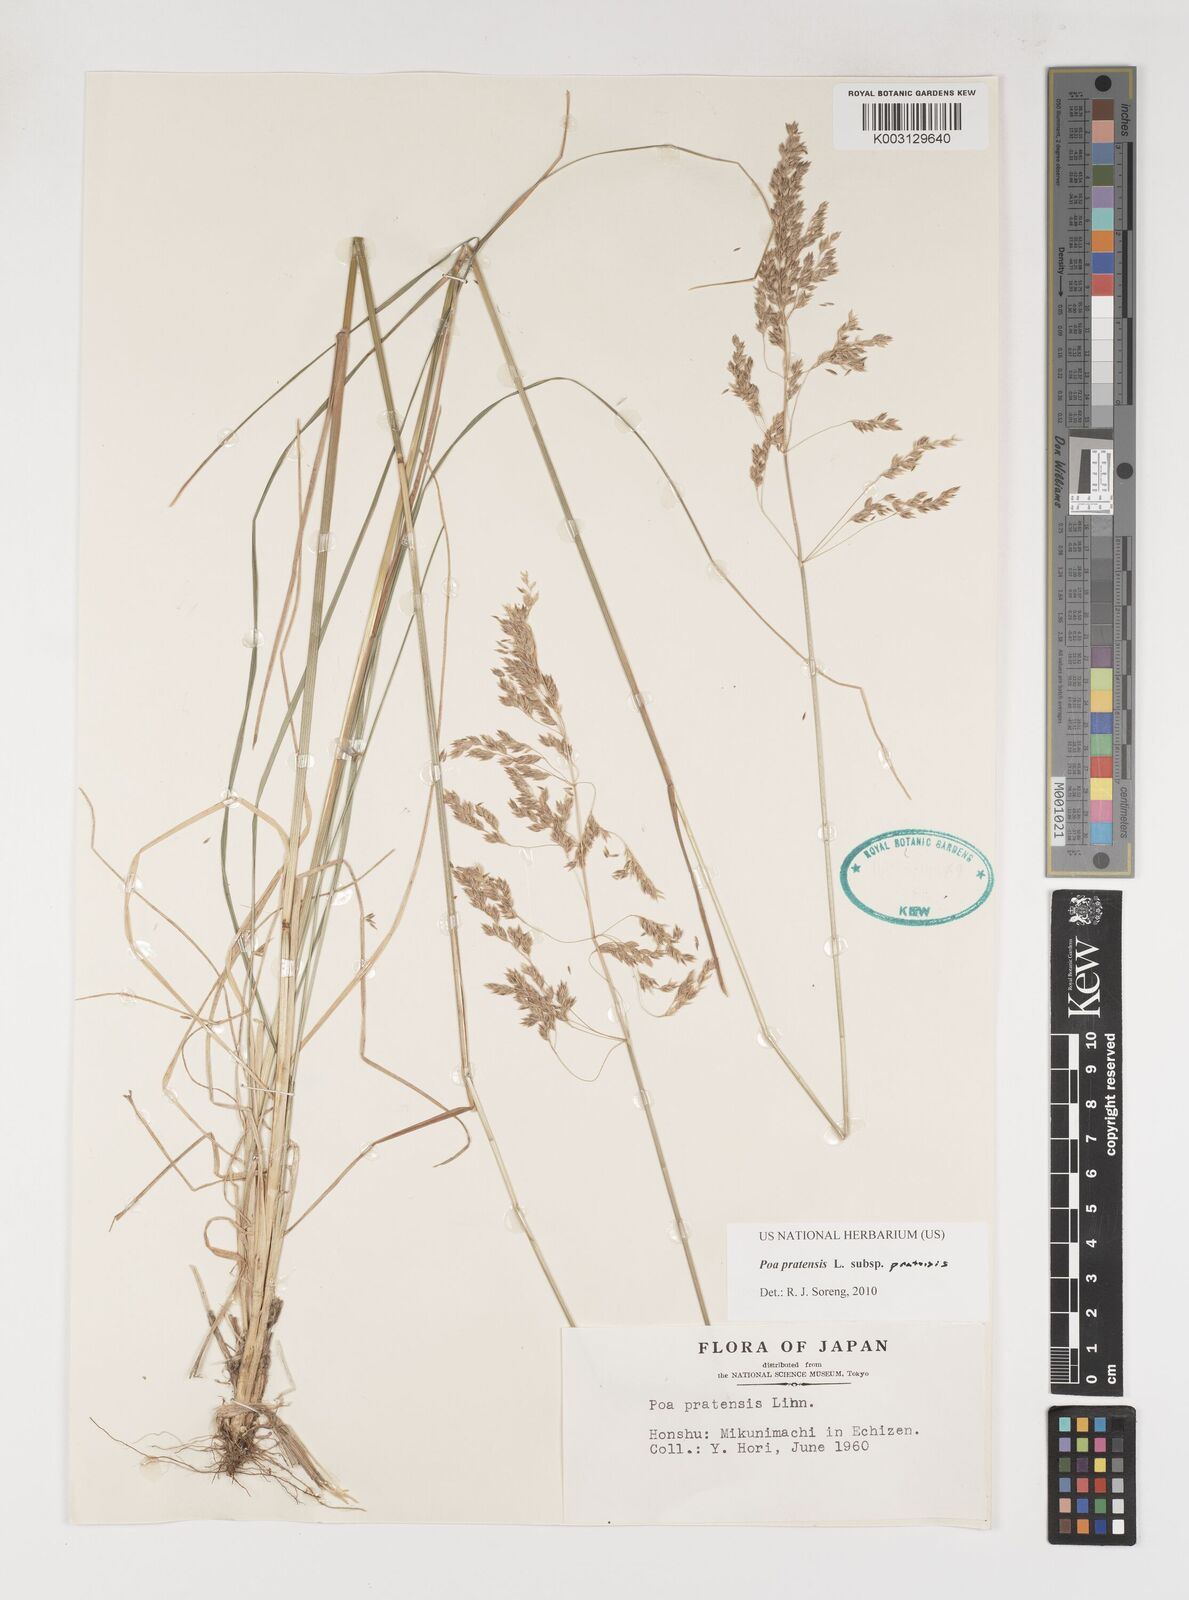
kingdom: Plantae
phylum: Tracheophyta
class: Liliopsida
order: Poales
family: Poaceae
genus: Poa
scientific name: Poa angustifolia
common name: Narrow-leaved meadow-grass
